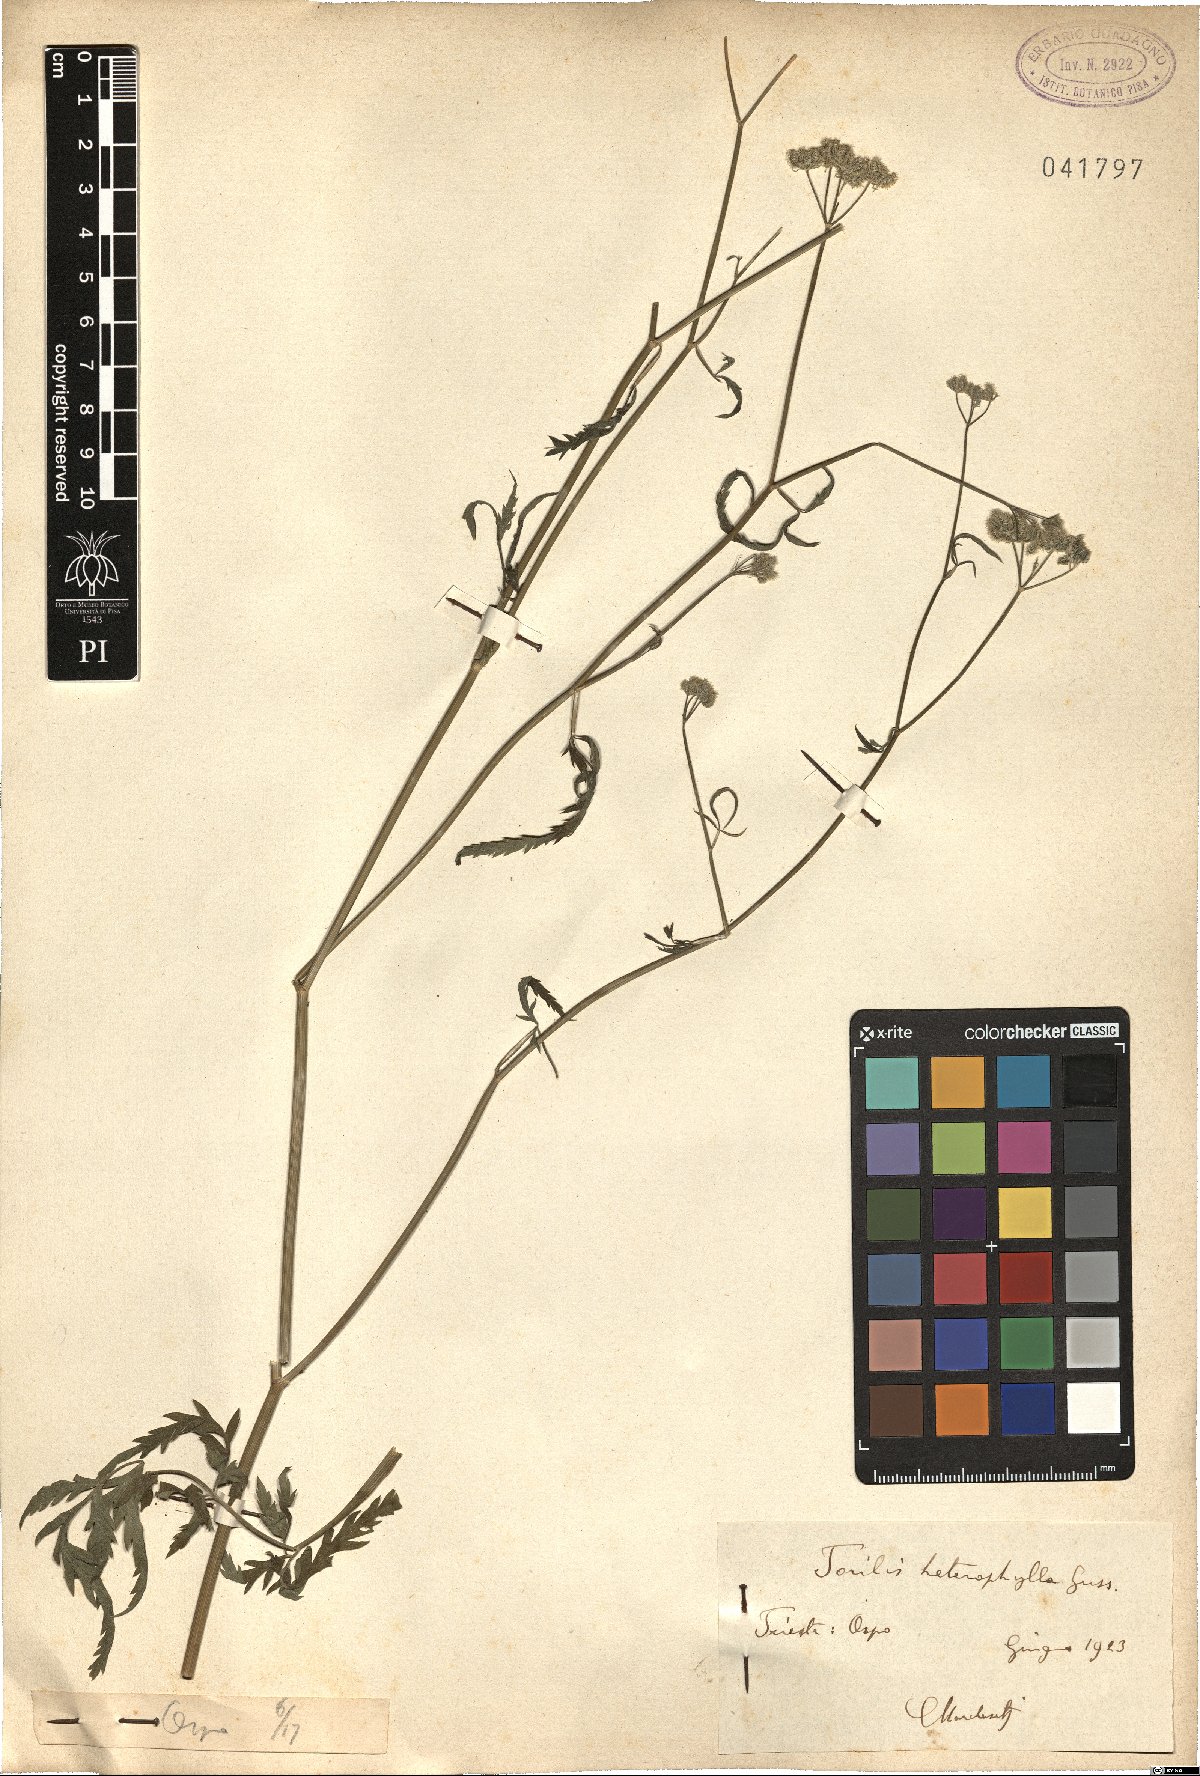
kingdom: Plantae
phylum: Tracheophyta
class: Magnoliopsida
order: Apiales
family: Apiaceae
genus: Torilis
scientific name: Torilis africana
